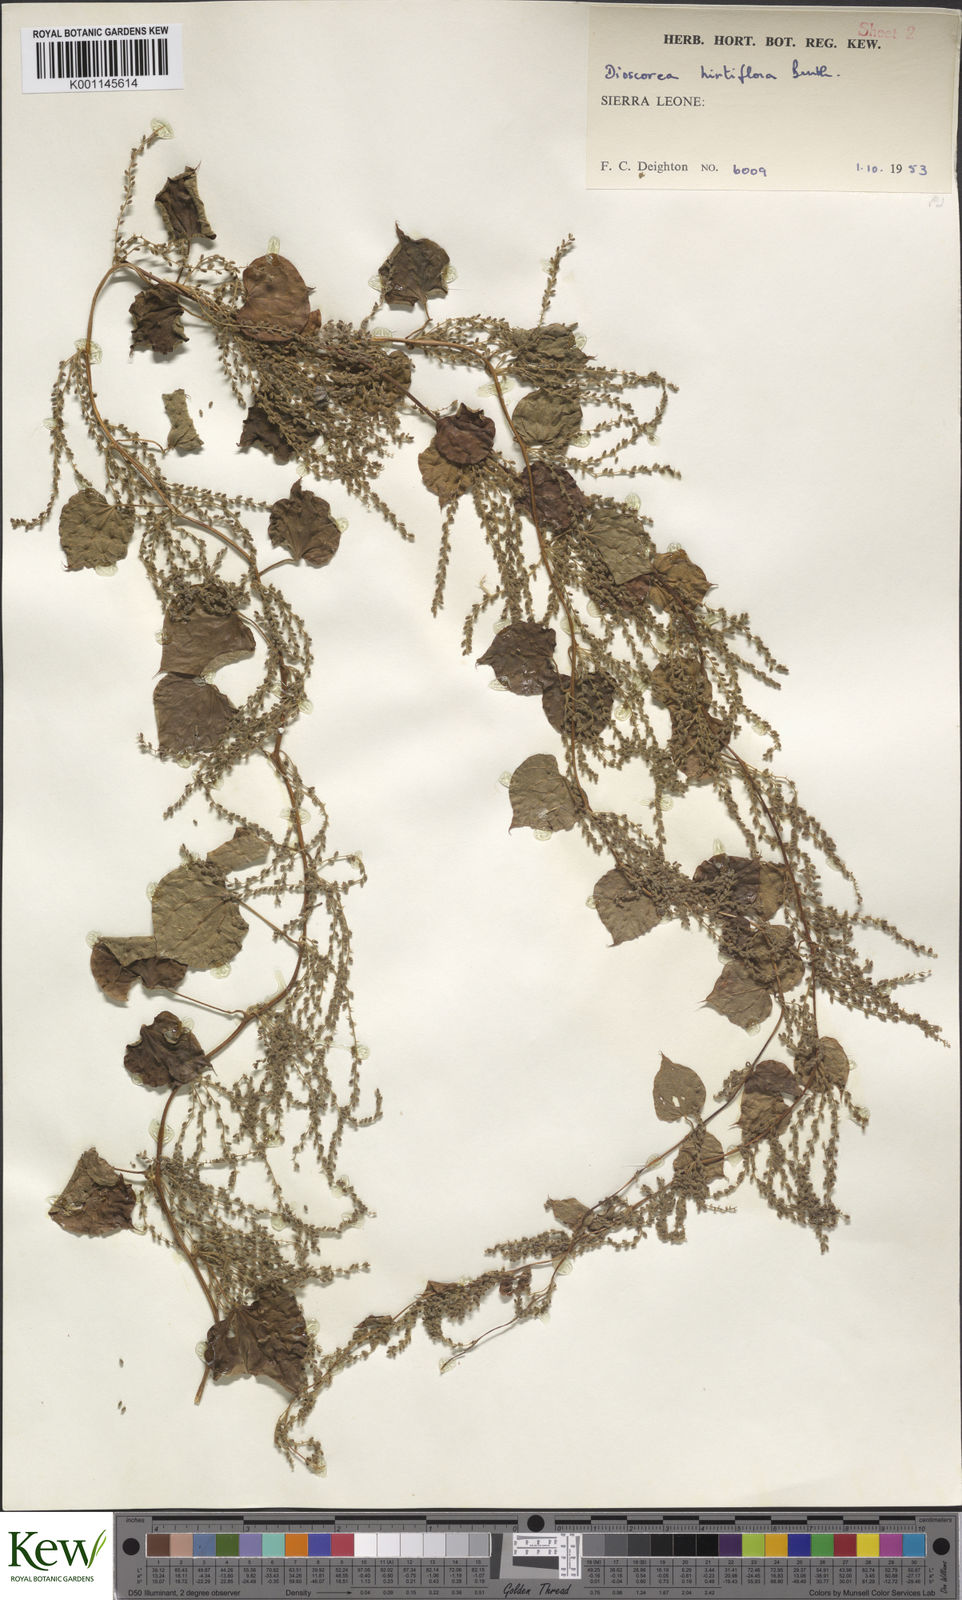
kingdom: Plantae
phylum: Tracheophyta
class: Liliopsida
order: Dioscoreales
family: Dioscoreaceae
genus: Dioscorea
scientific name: Dioscorea hirtiflora
